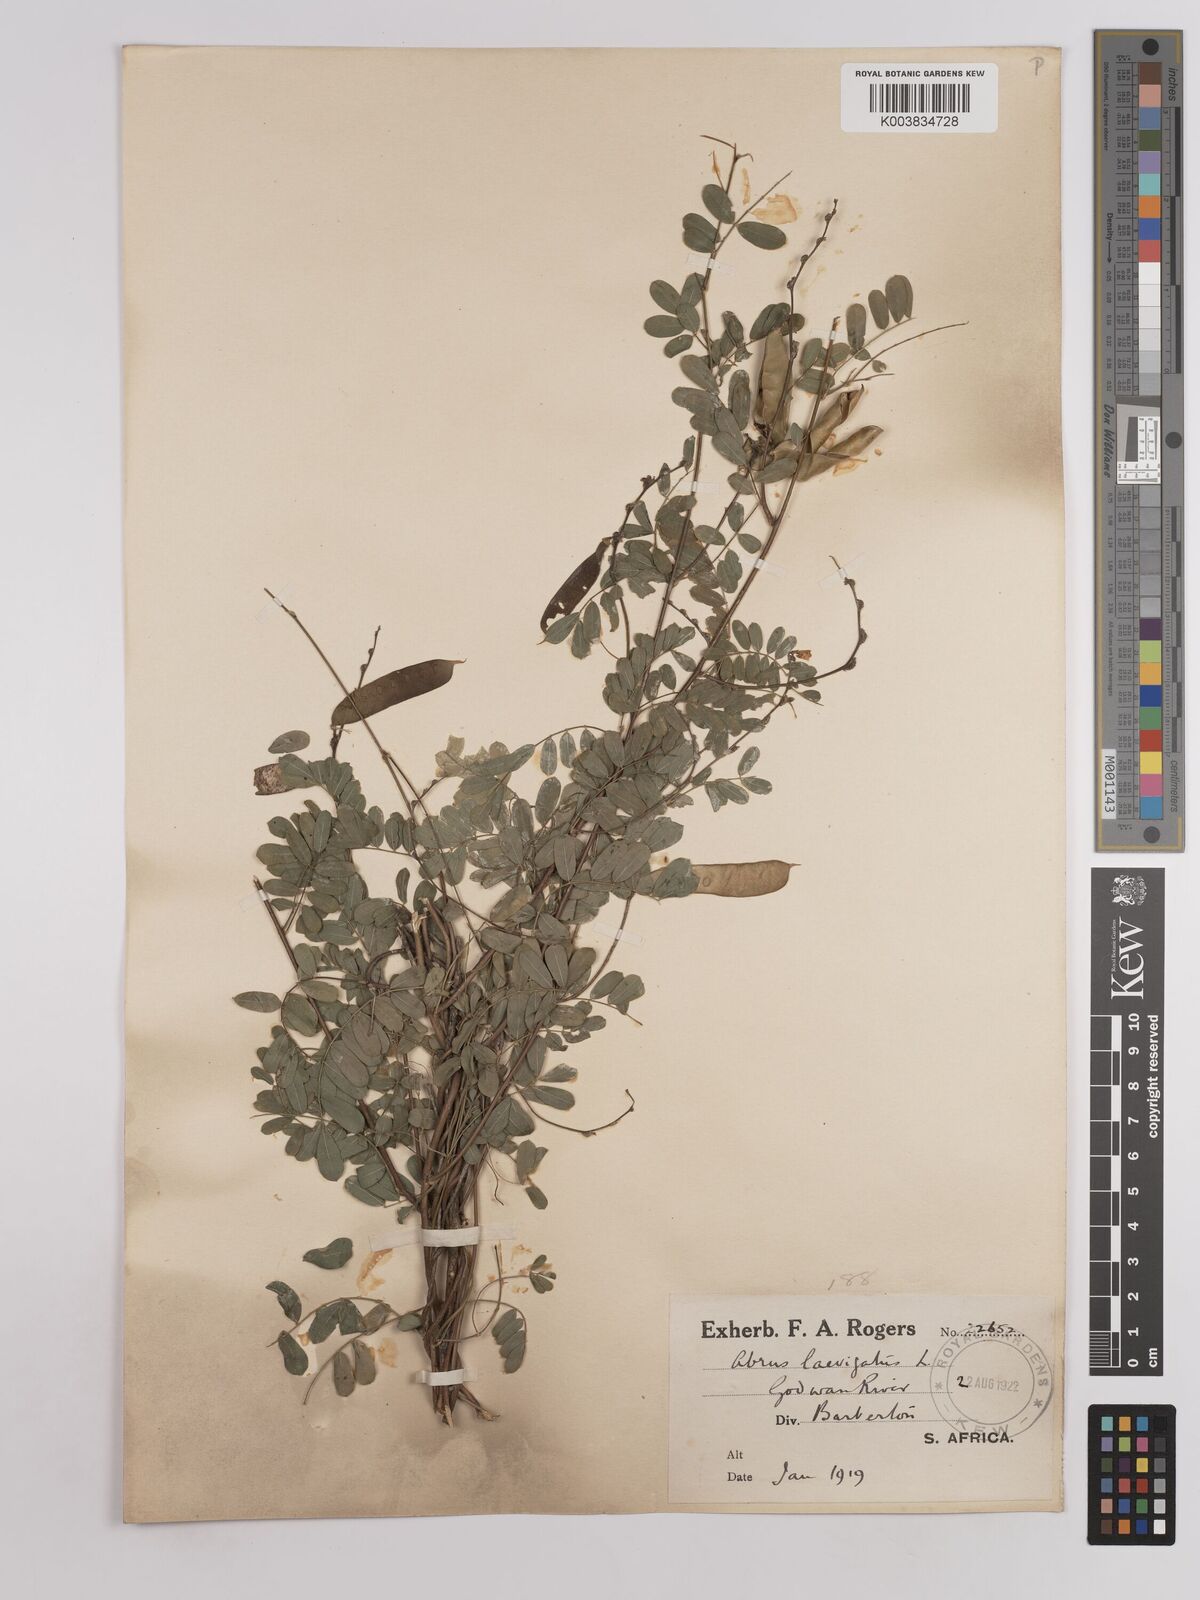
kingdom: Plantae
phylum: Tracheophyta
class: Magnoliopsida
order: Fabales
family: Fabaceae
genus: Abrus
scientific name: Abrus laevigatus
